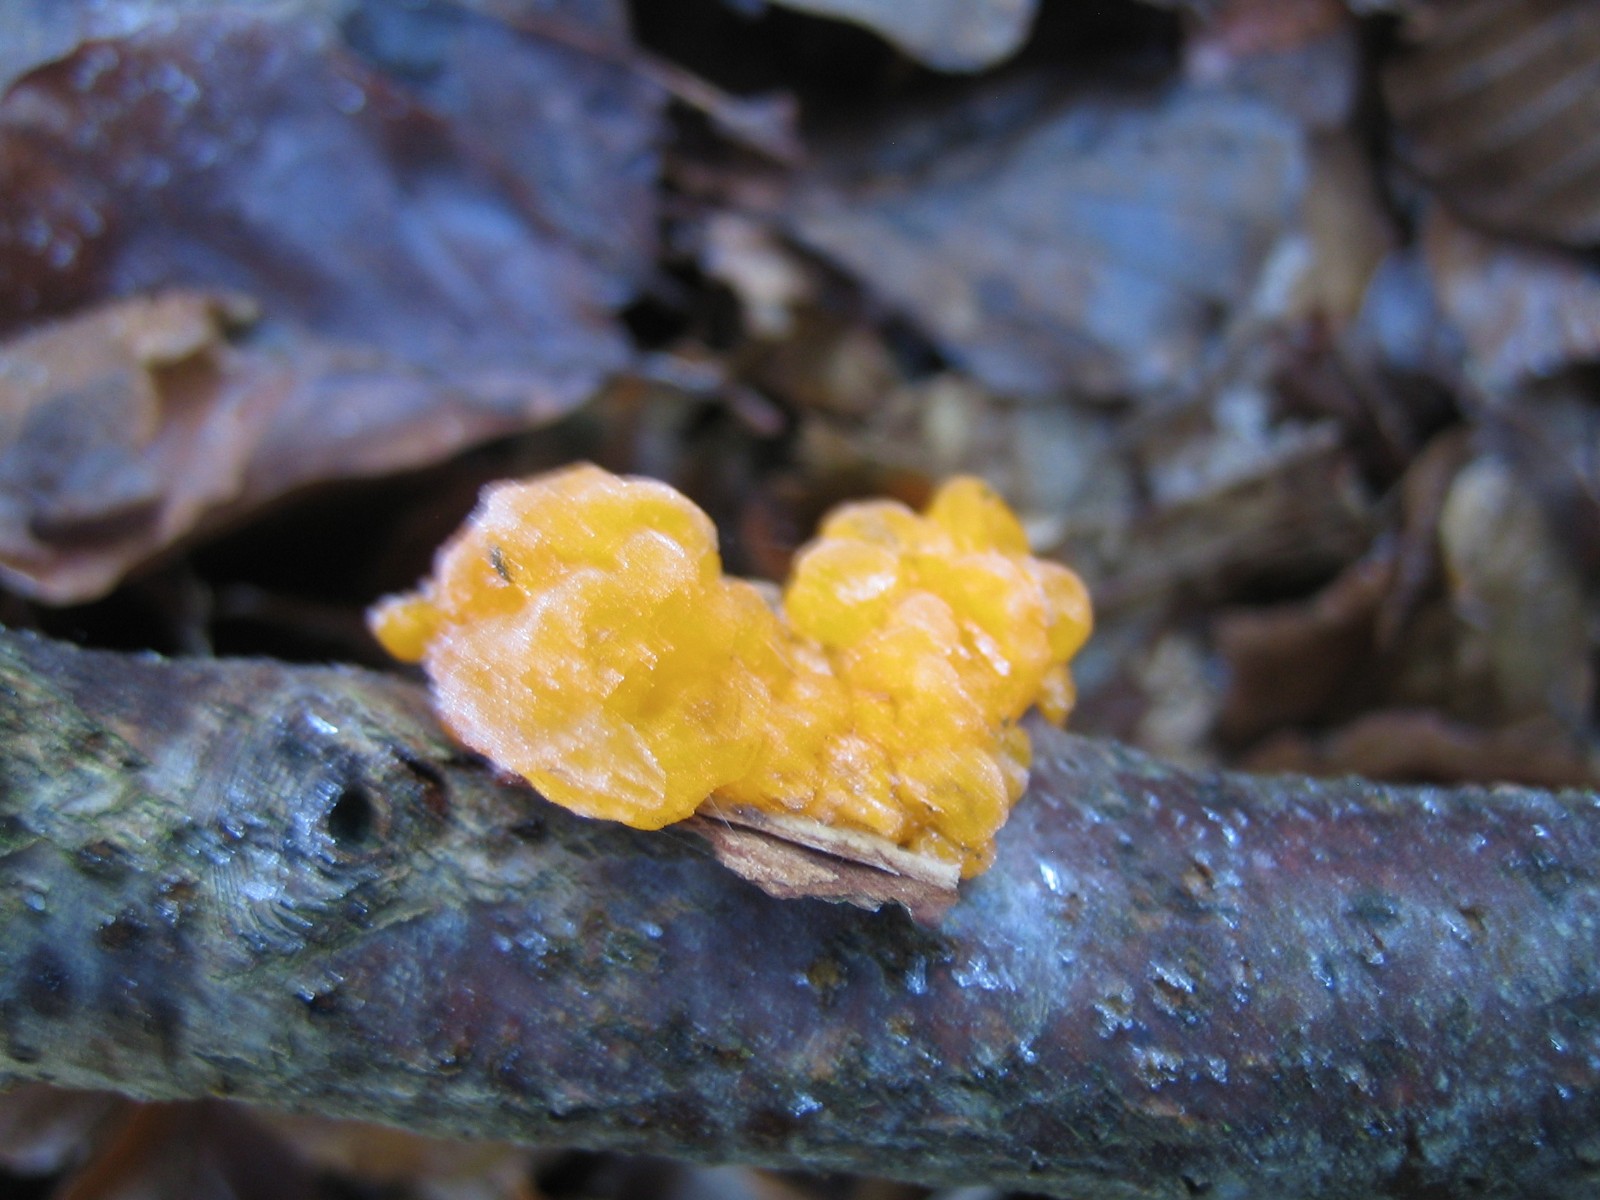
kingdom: Fungi
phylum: Basidiomycota
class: Tremellomycetes
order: Tremellales
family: Tremellaceae
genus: Tremella
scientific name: Tremella mesenterica
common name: gul bævresvamp
